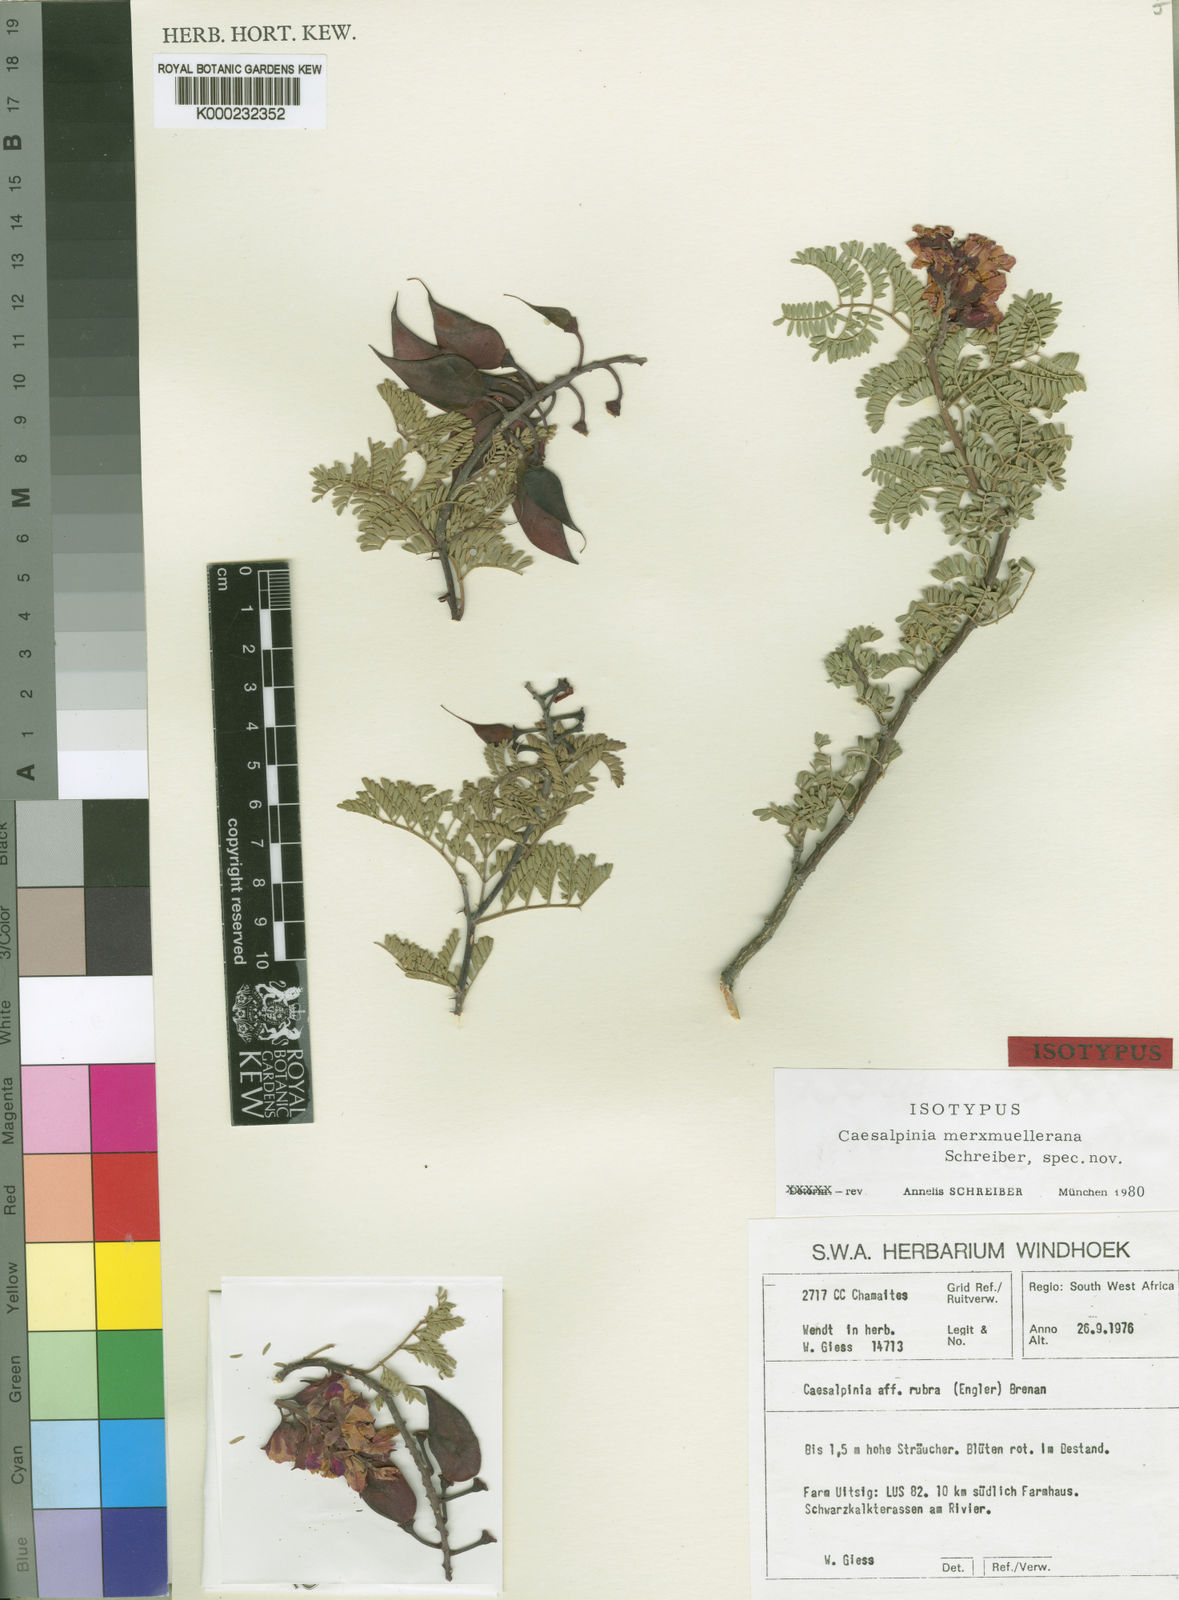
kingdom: Plantae
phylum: Tracheophyta
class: Magnoliopsida
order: Fabales
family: Fabaceae
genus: Gelrebia
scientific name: Gelrebia merxmuellerana
